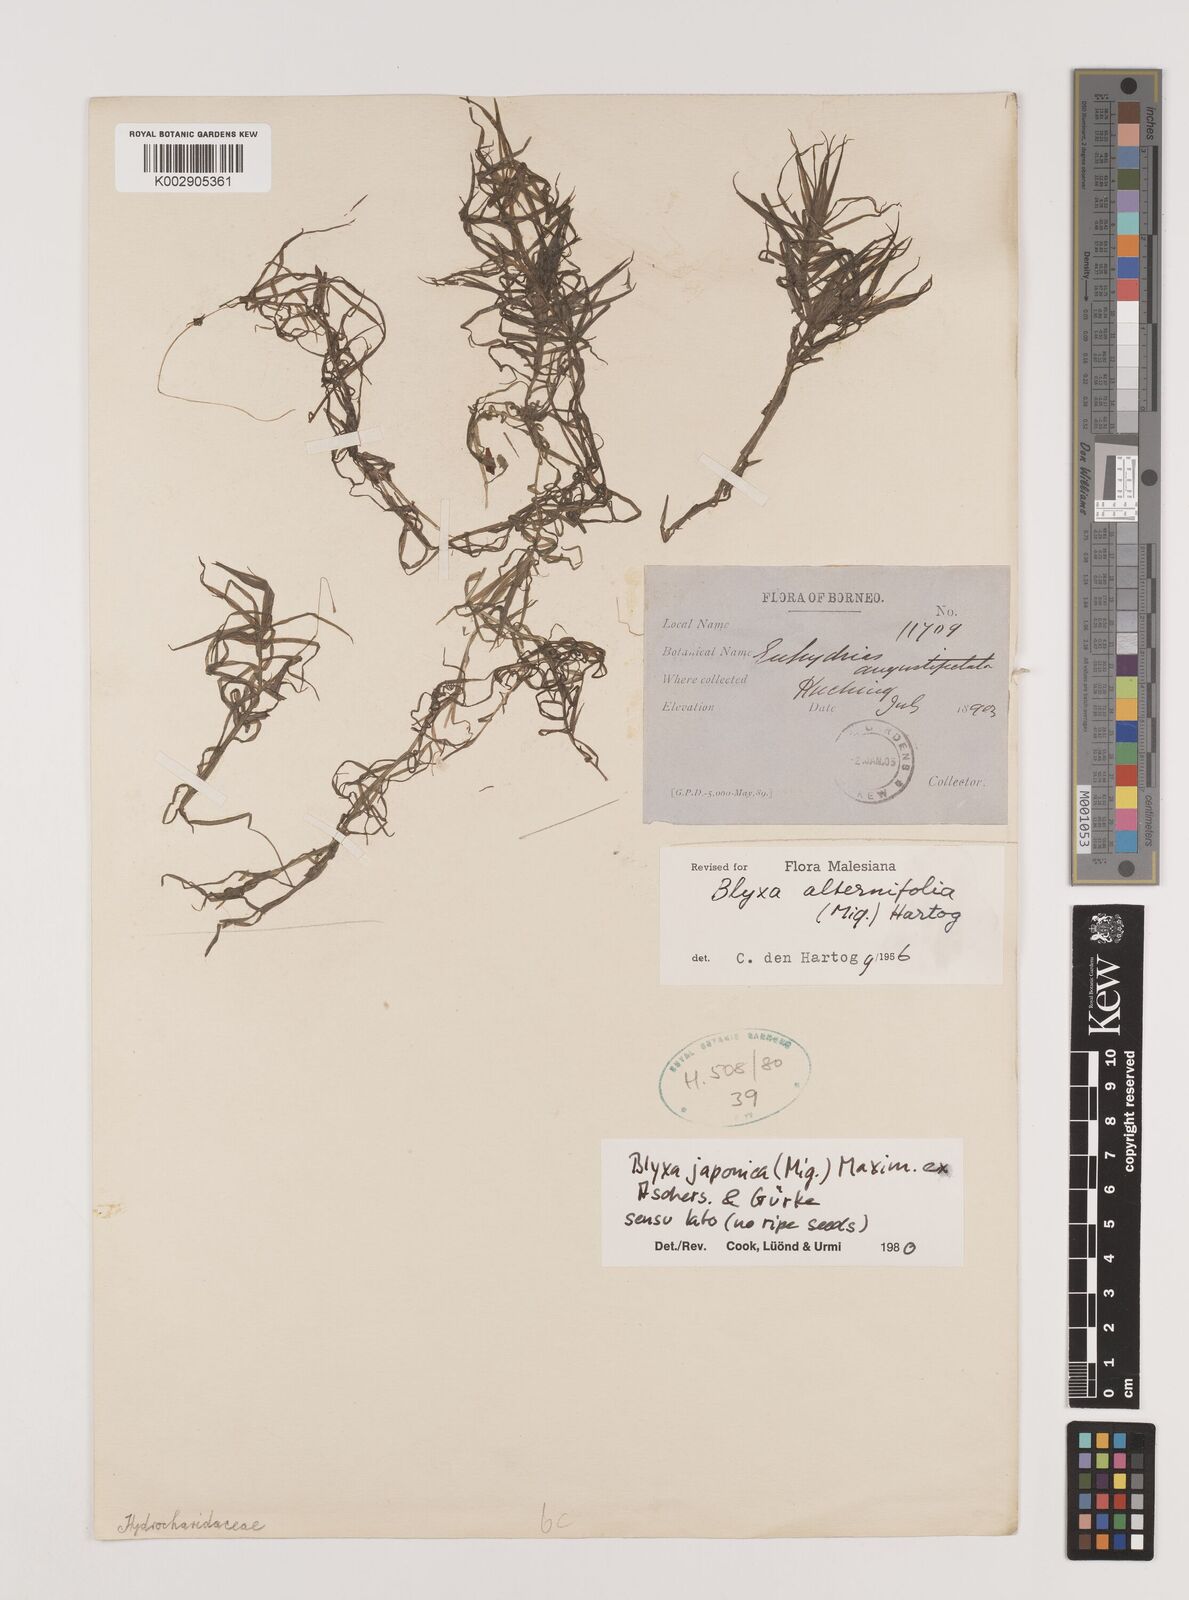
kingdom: Plantae
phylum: Tracheophyta
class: Liliopsida
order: Alismatales
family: Hydrocharitaceae
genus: Blyxa
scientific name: Blyxa japonica
